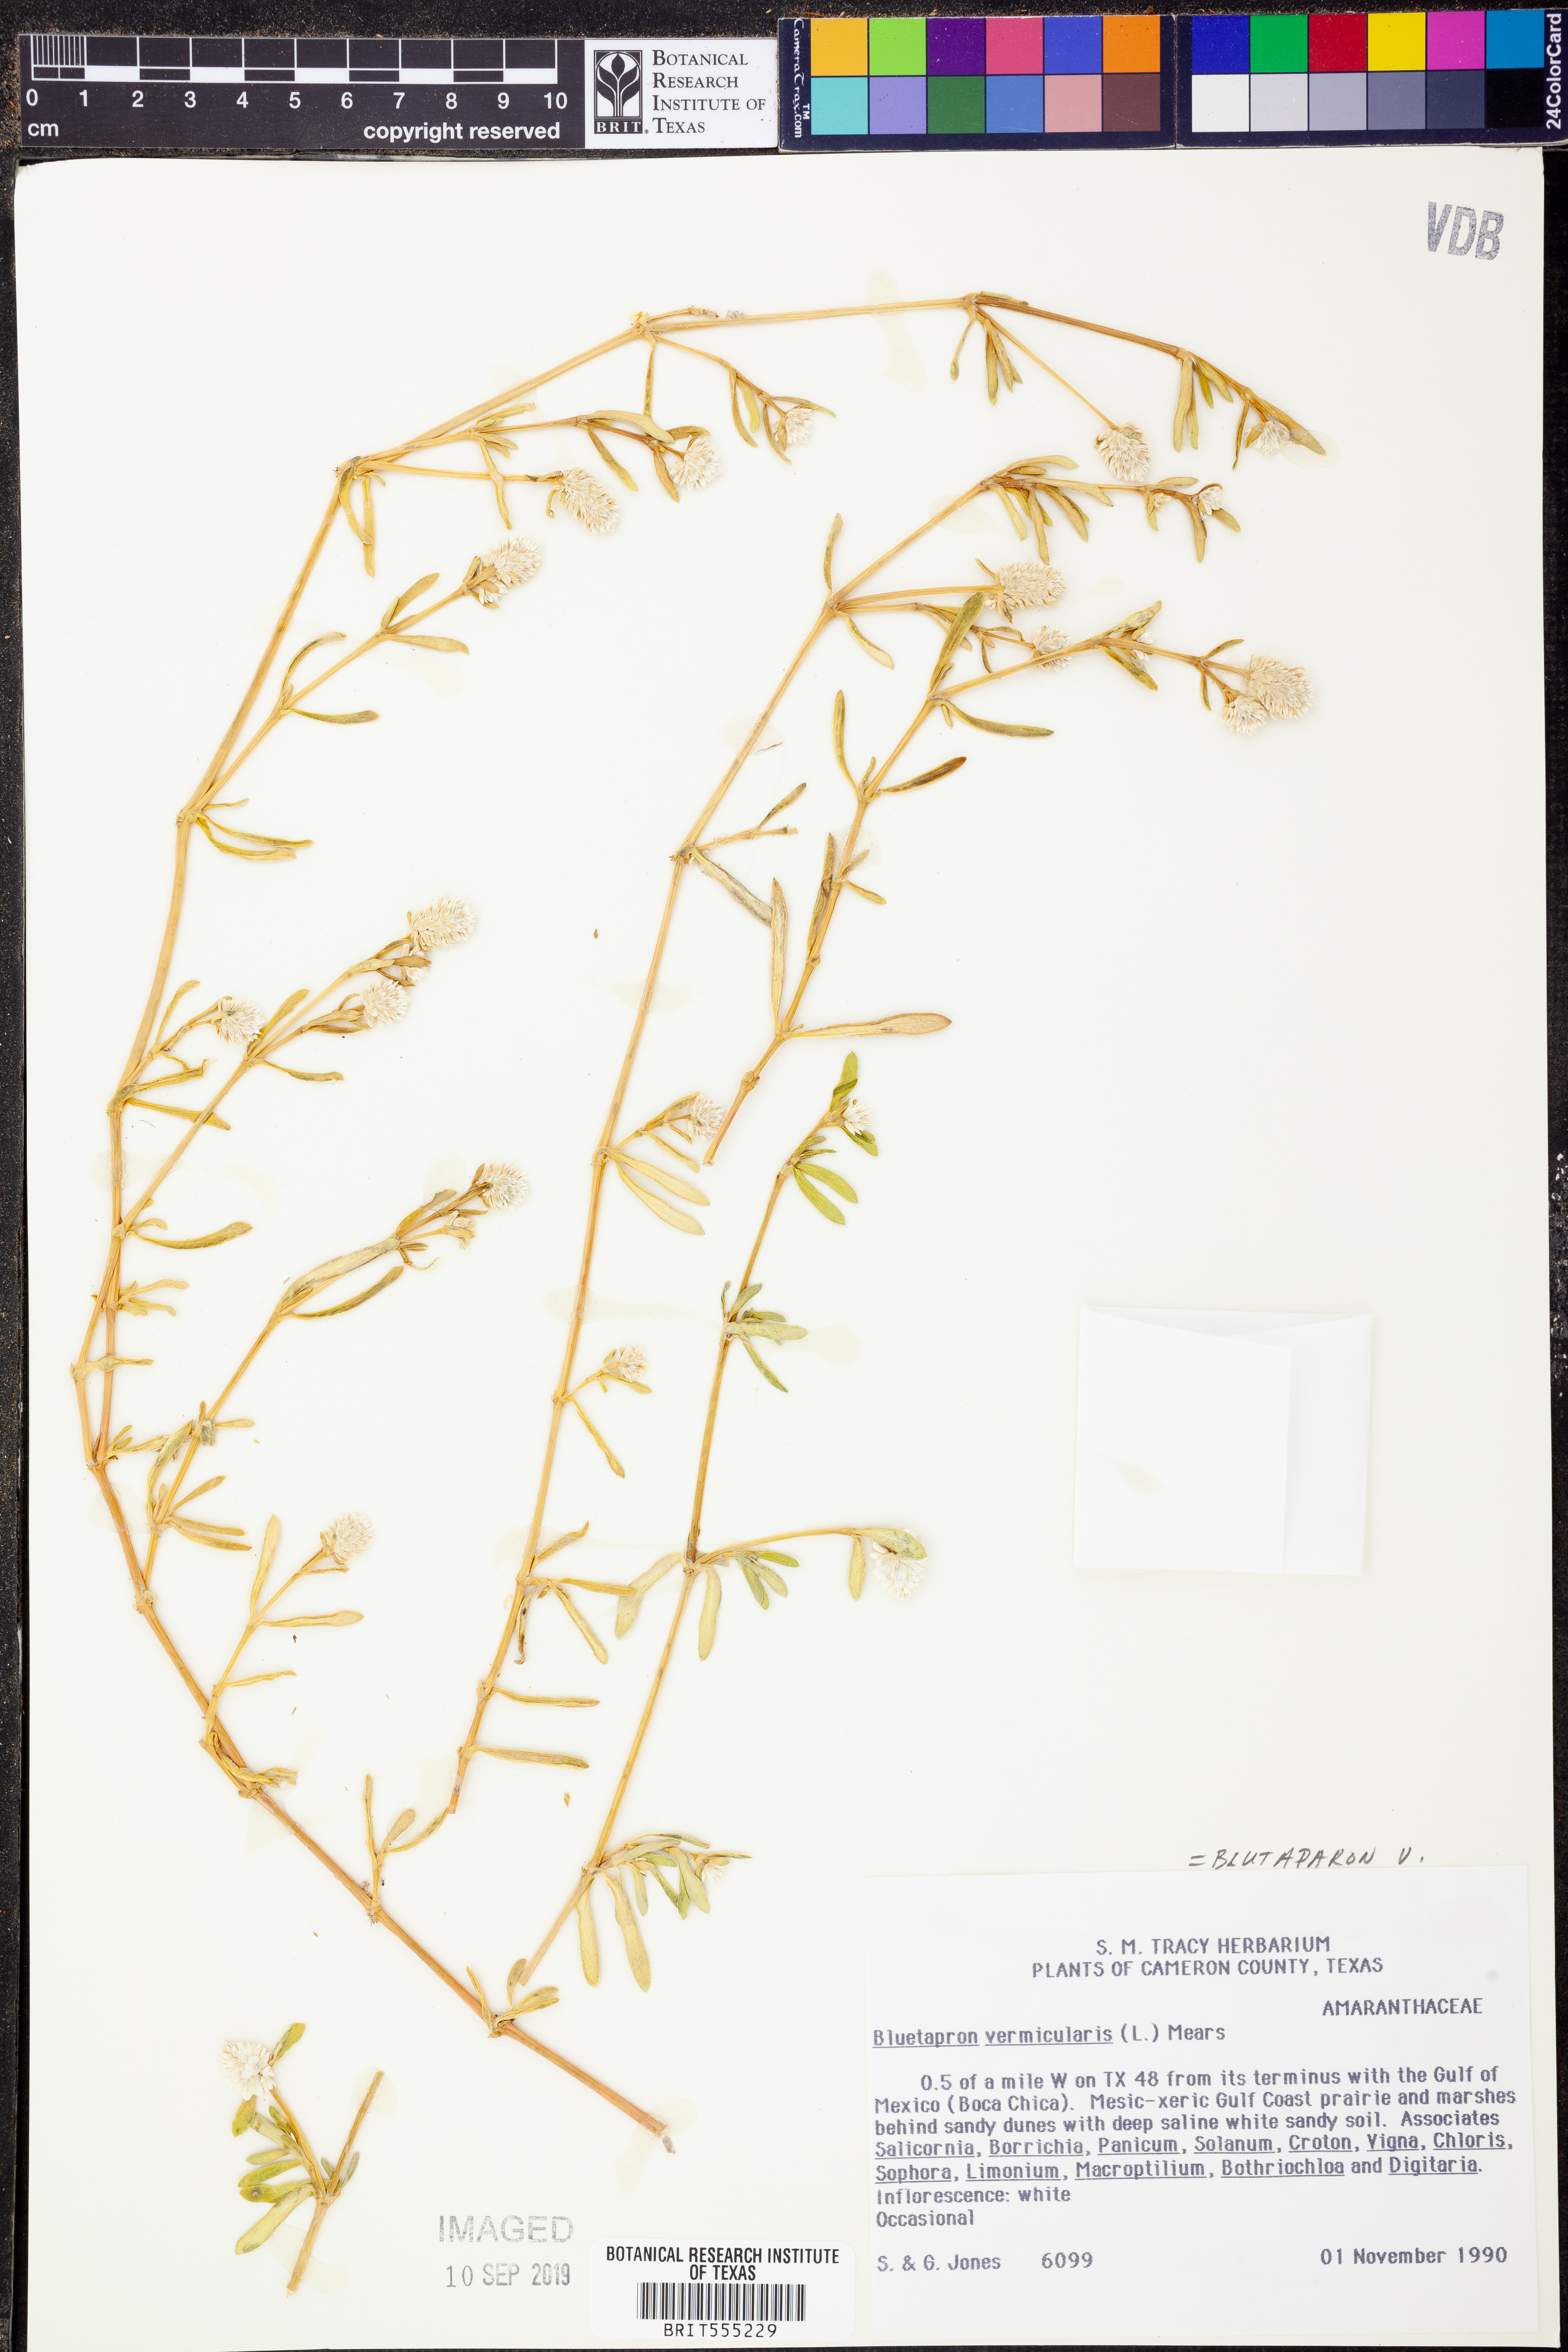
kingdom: Plantae
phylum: Tracheophyta
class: Magnoliopsida
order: Caryophyllales
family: Amaranthaceae
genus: Gomphrena
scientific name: Gomphrena vermicularis
